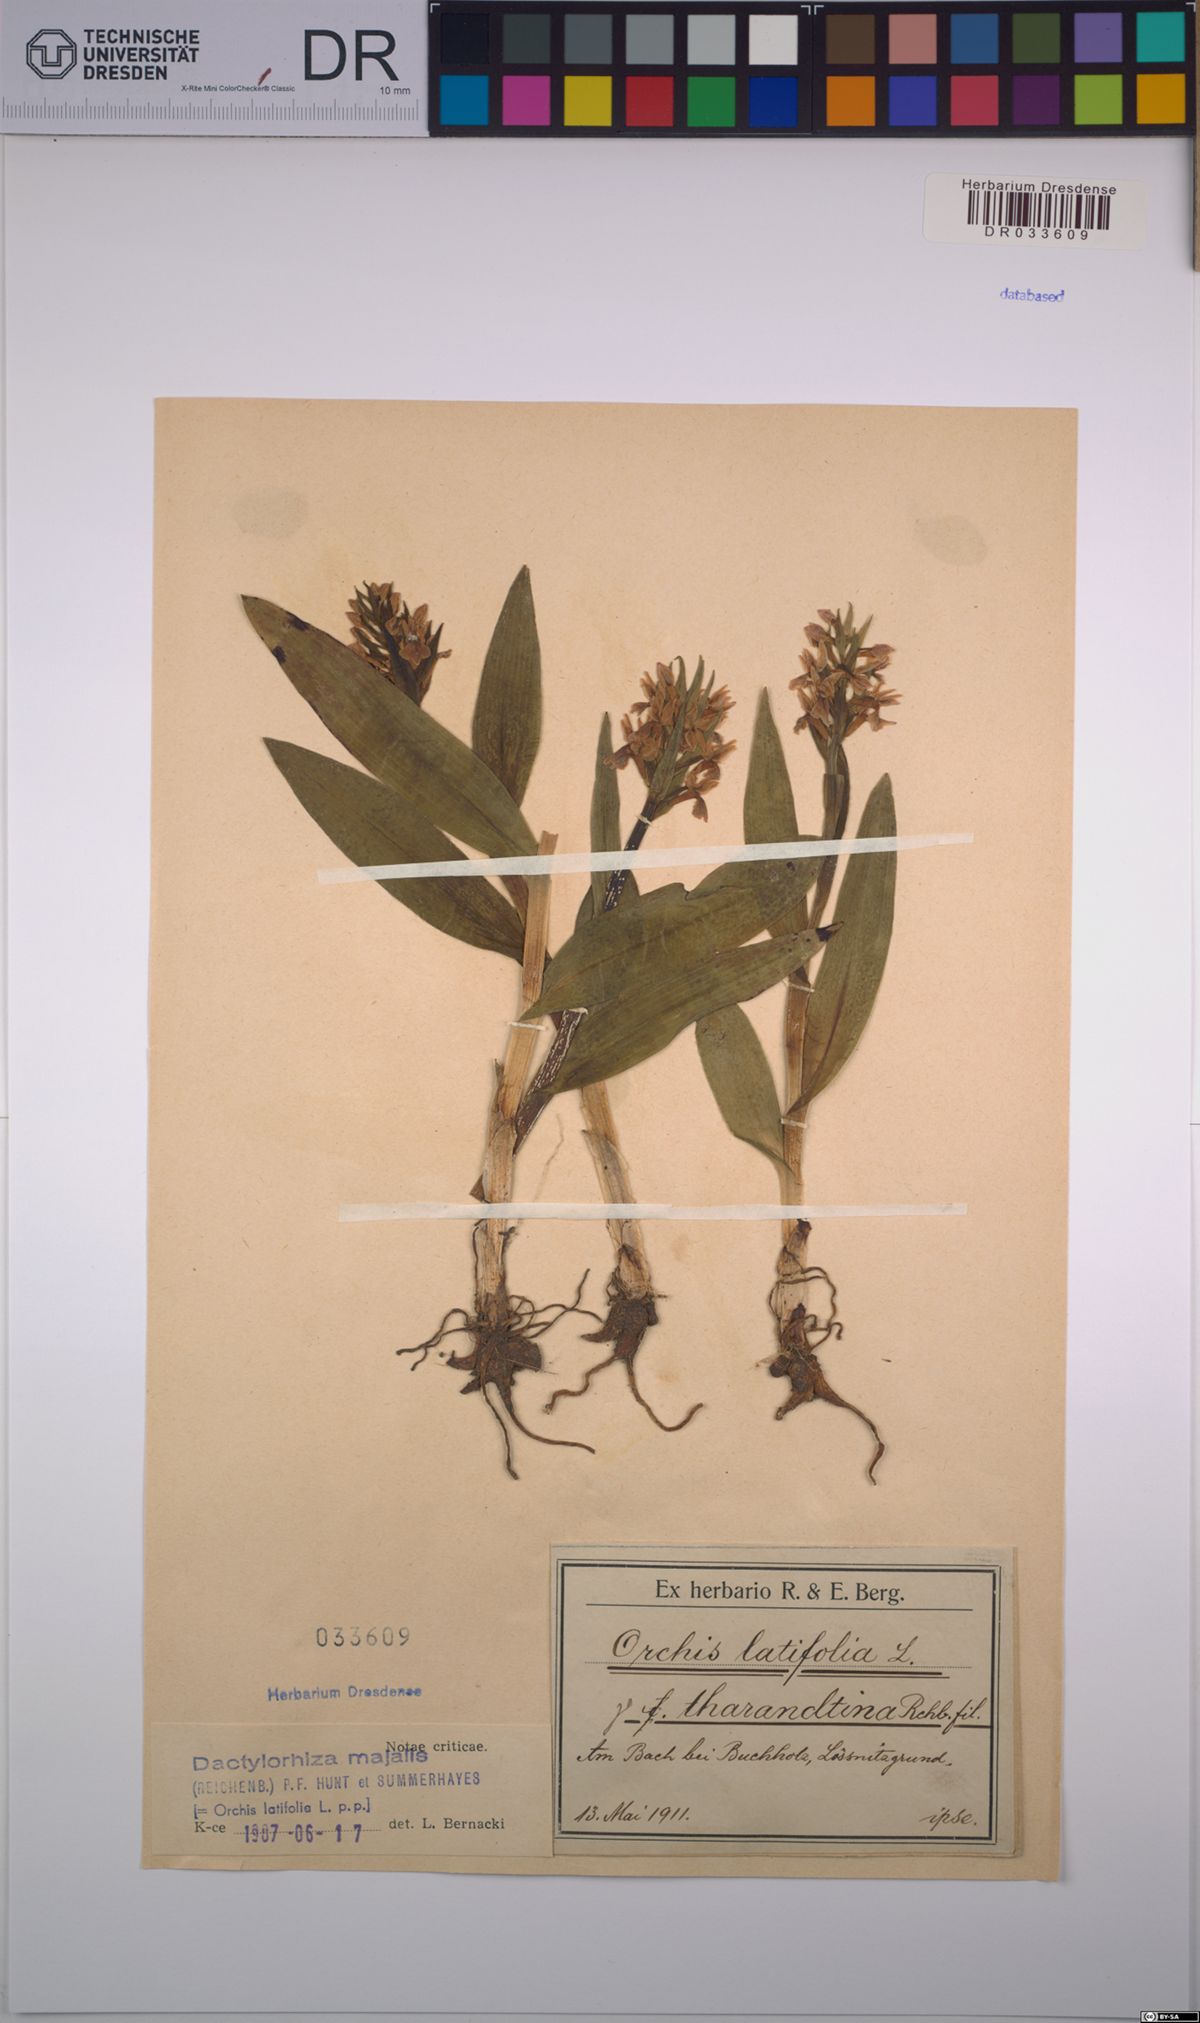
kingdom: Plantae
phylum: Tracheophyta
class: Liliopsida
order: Asparagales
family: Orchidaceae
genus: Dactylorhiza
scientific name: Dactylorhiza majalis
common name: Marsh orchid
